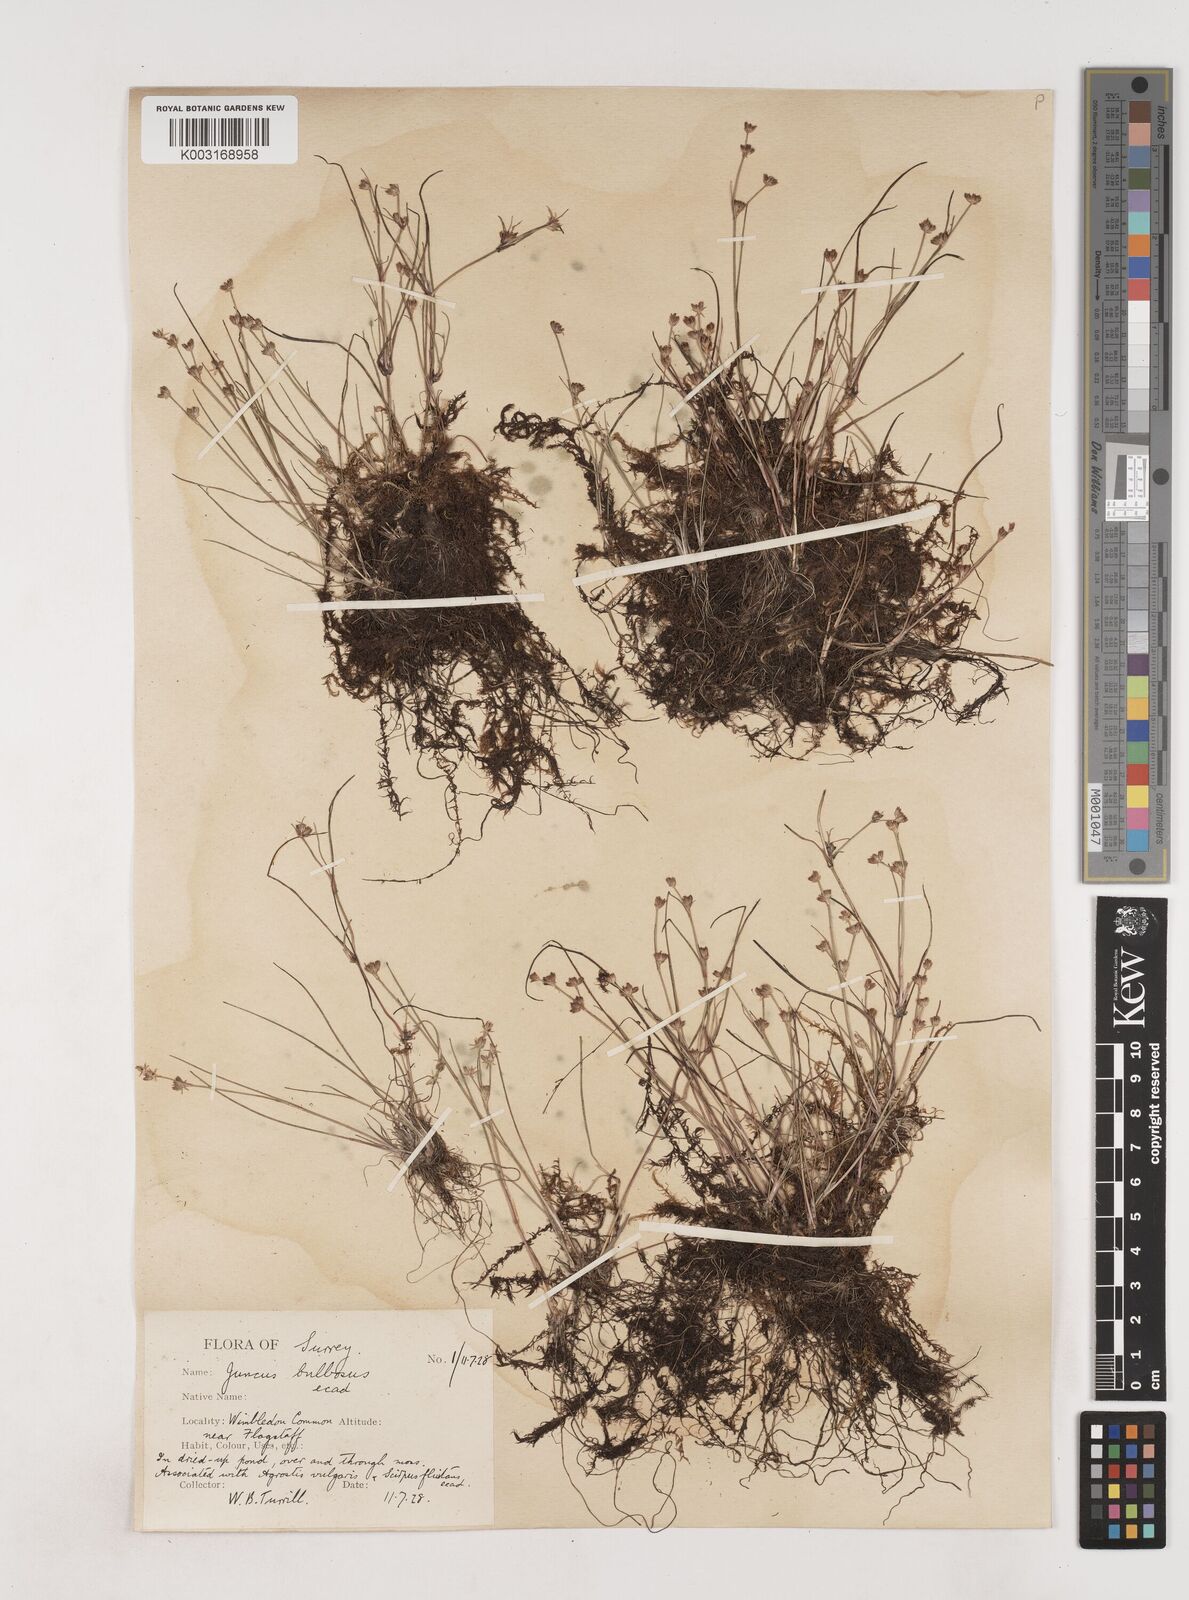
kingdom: Plantae
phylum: Tracheophyta
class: Liliopsida
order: Poales
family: Juncaceae
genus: Juncus
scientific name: Juncus bulbosus
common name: Bulbous rush
